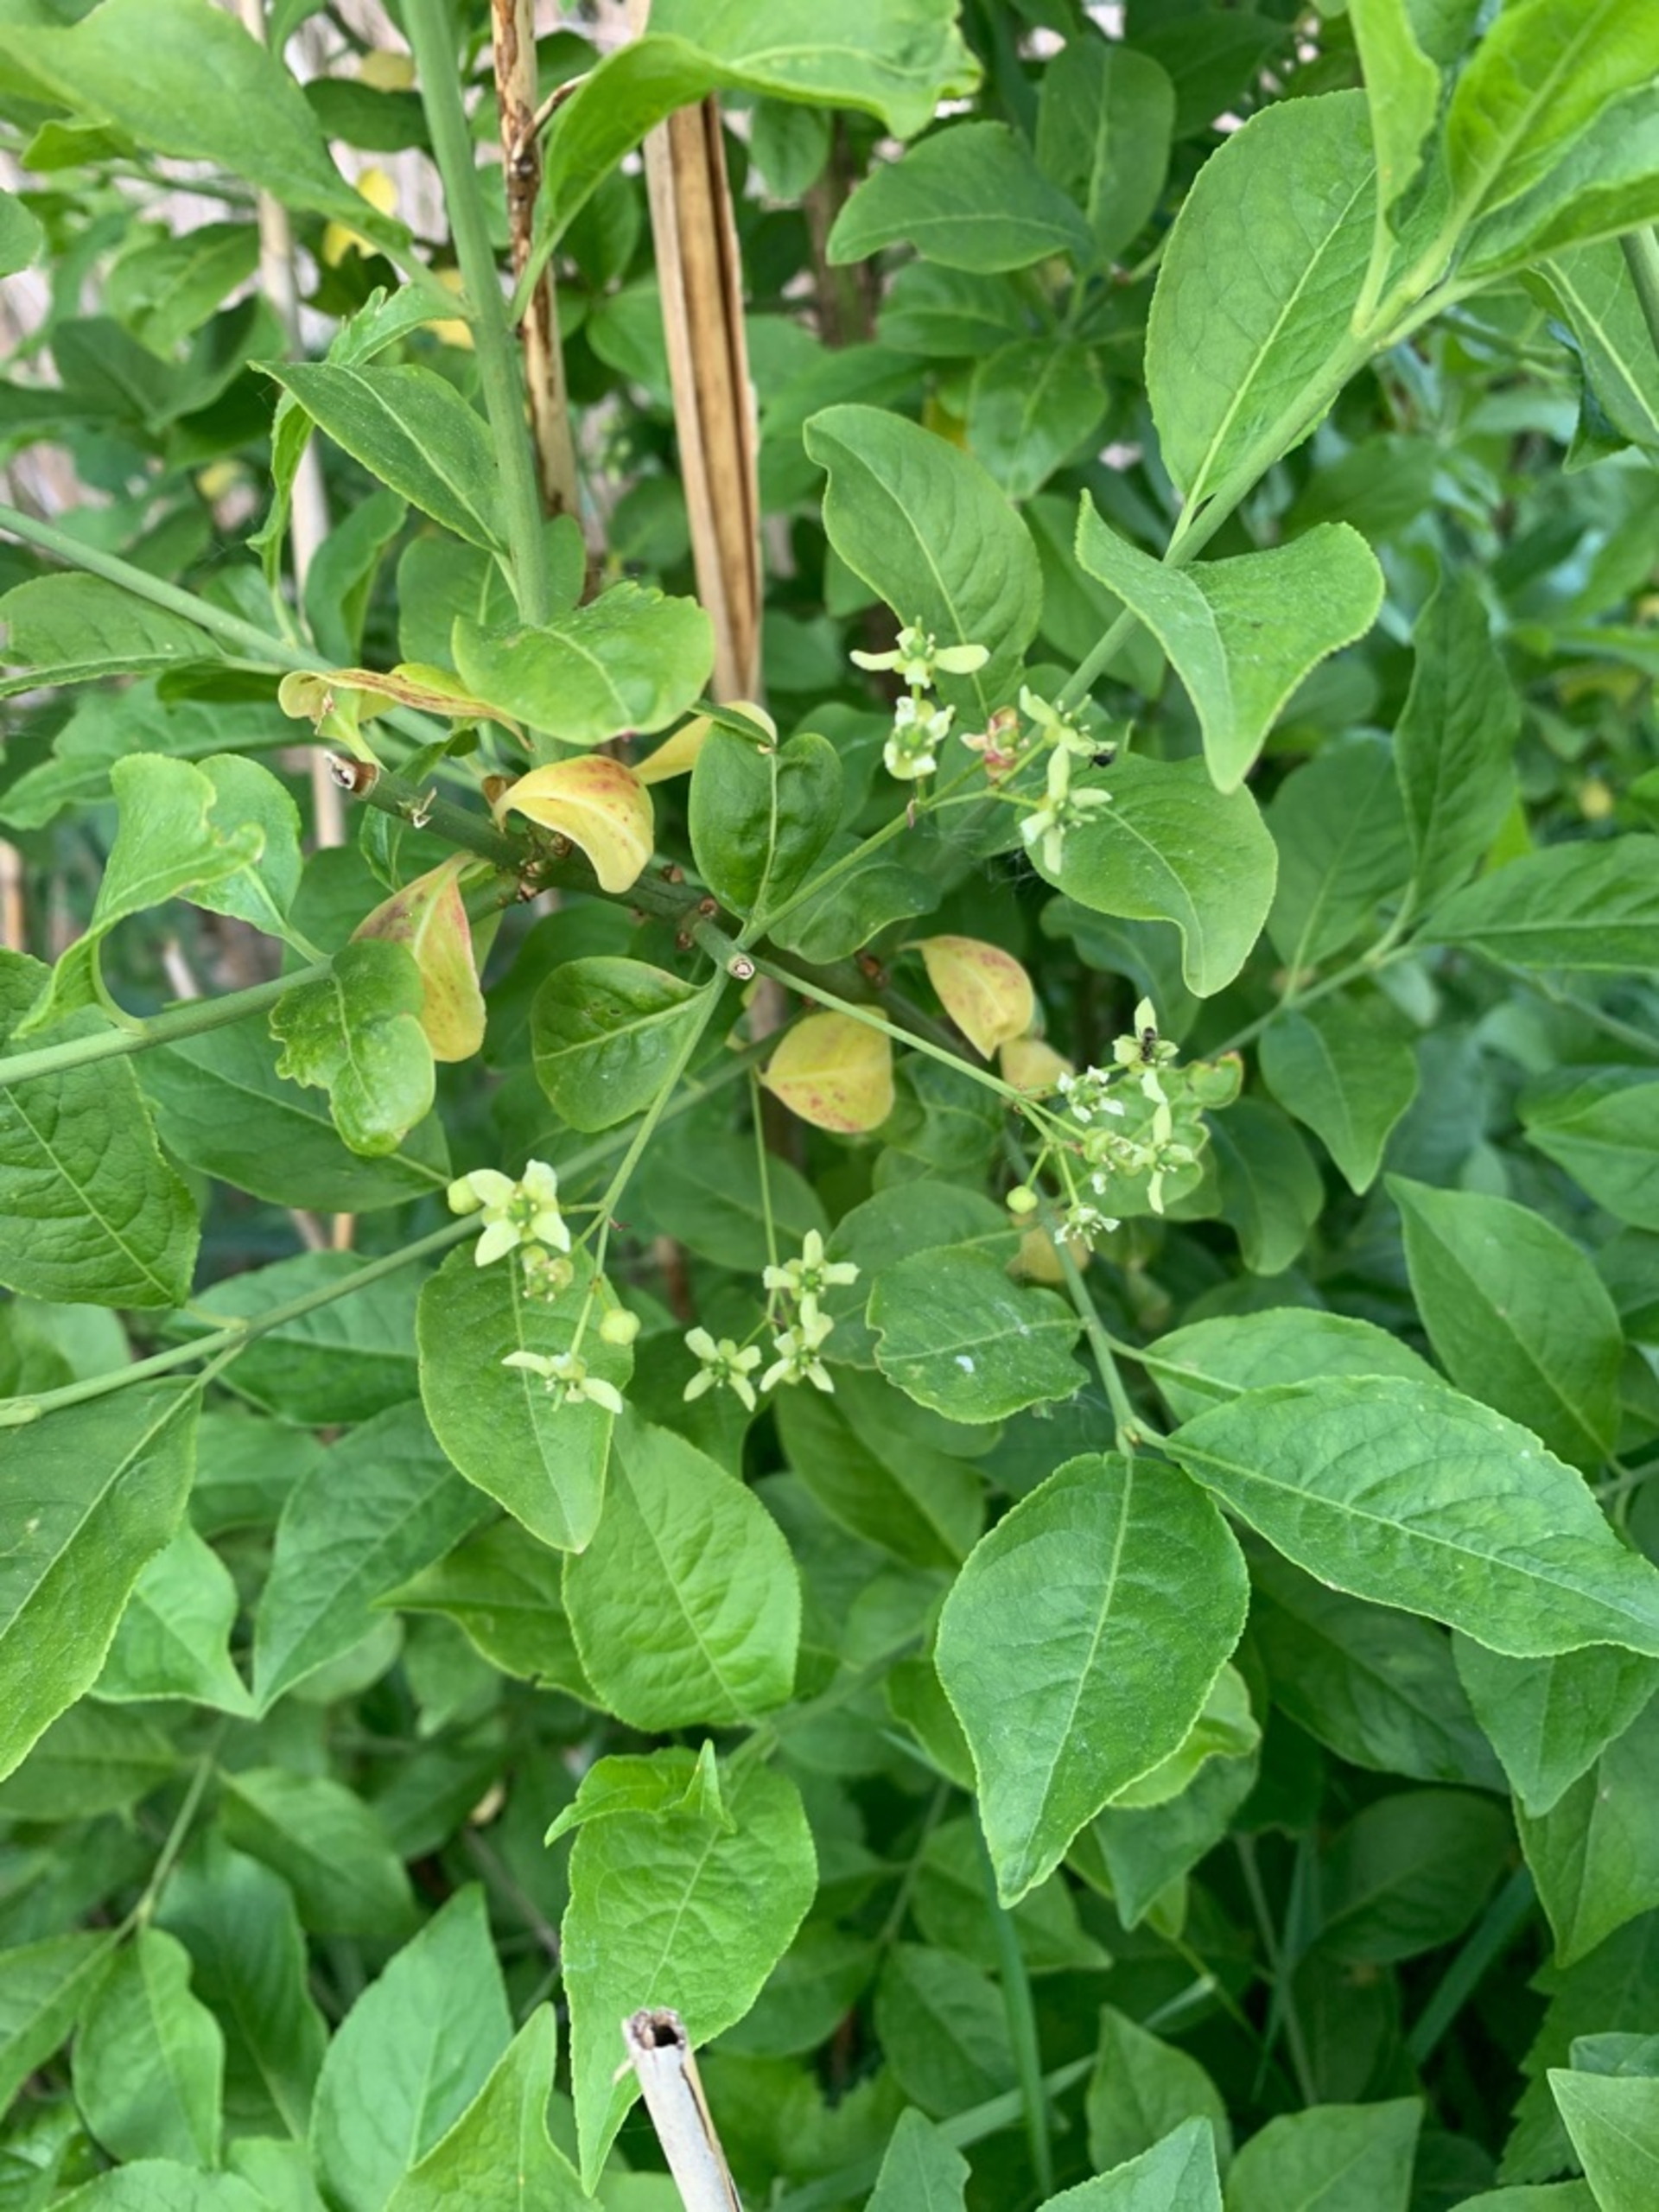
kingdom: Plantae
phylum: Tracheophyta
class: Magnoliopsida
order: Celastrales
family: Celastraceae
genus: Euonymus
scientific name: Euonymus europaeus
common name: Benved
